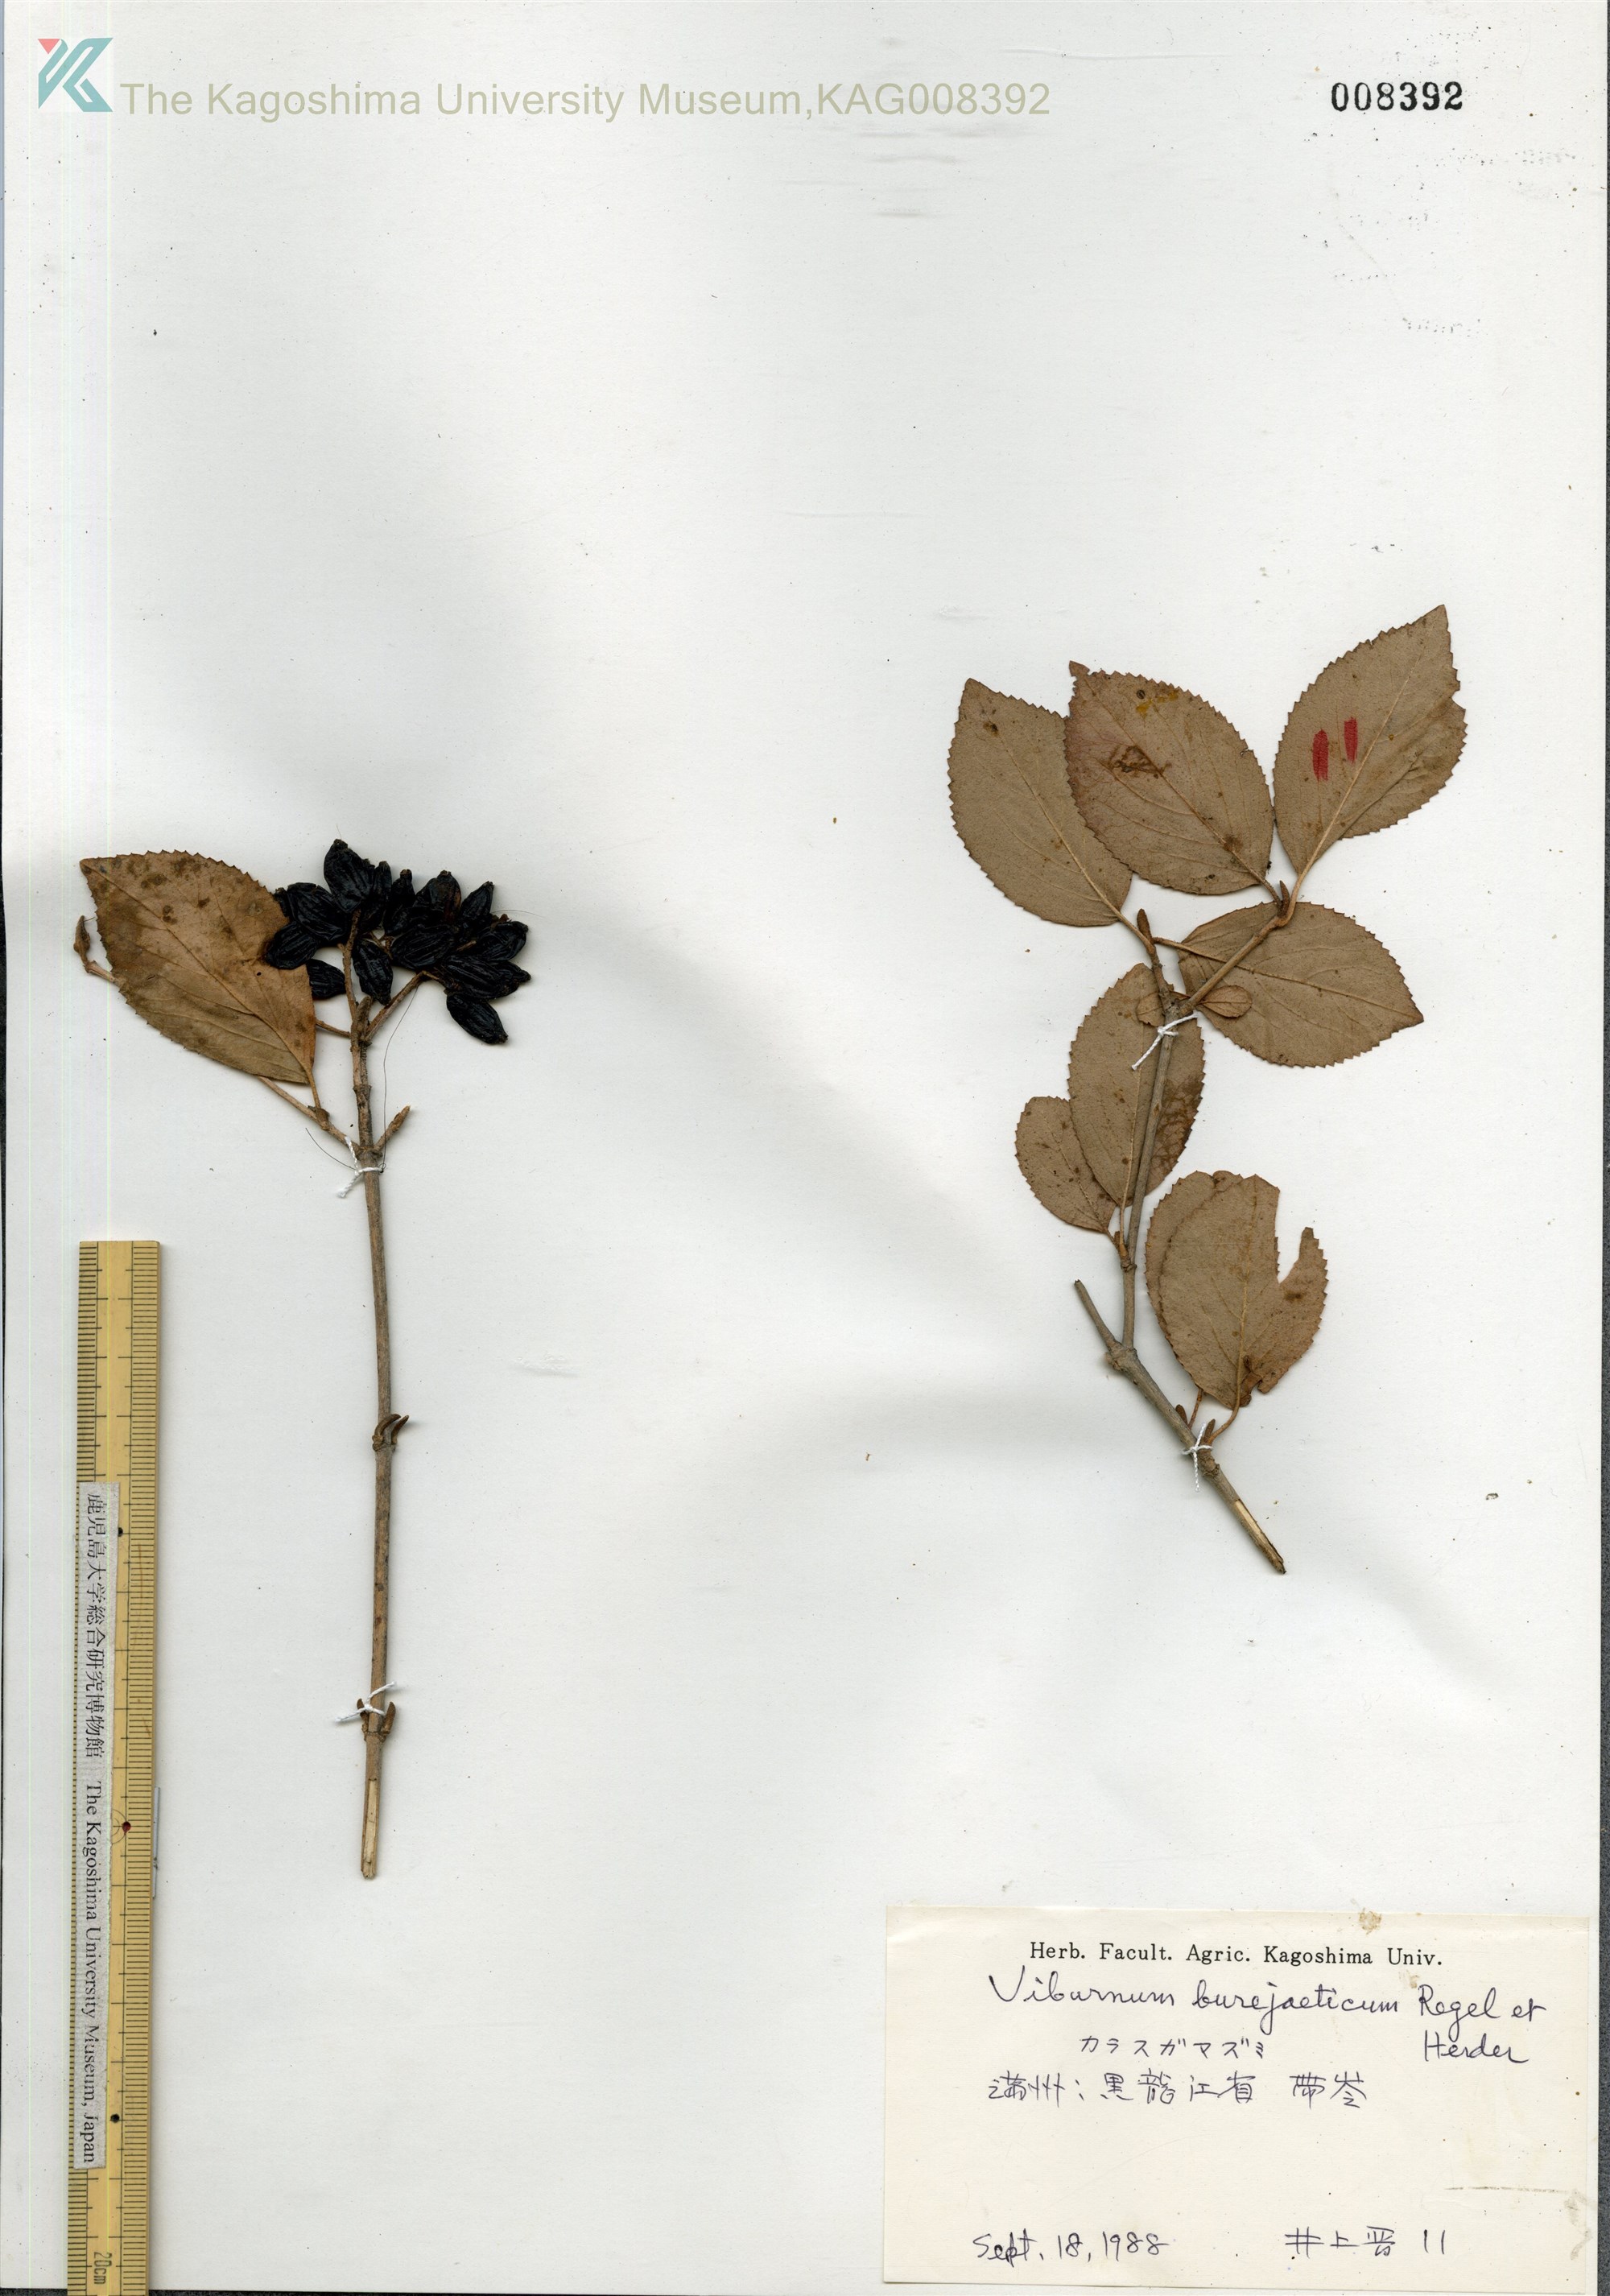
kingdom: Plantae
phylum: Tracheophyta
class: Magnoliopsida
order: Dipsacales
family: Viburnaceae
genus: Viburnum
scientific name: Viburnum burejaeticum
